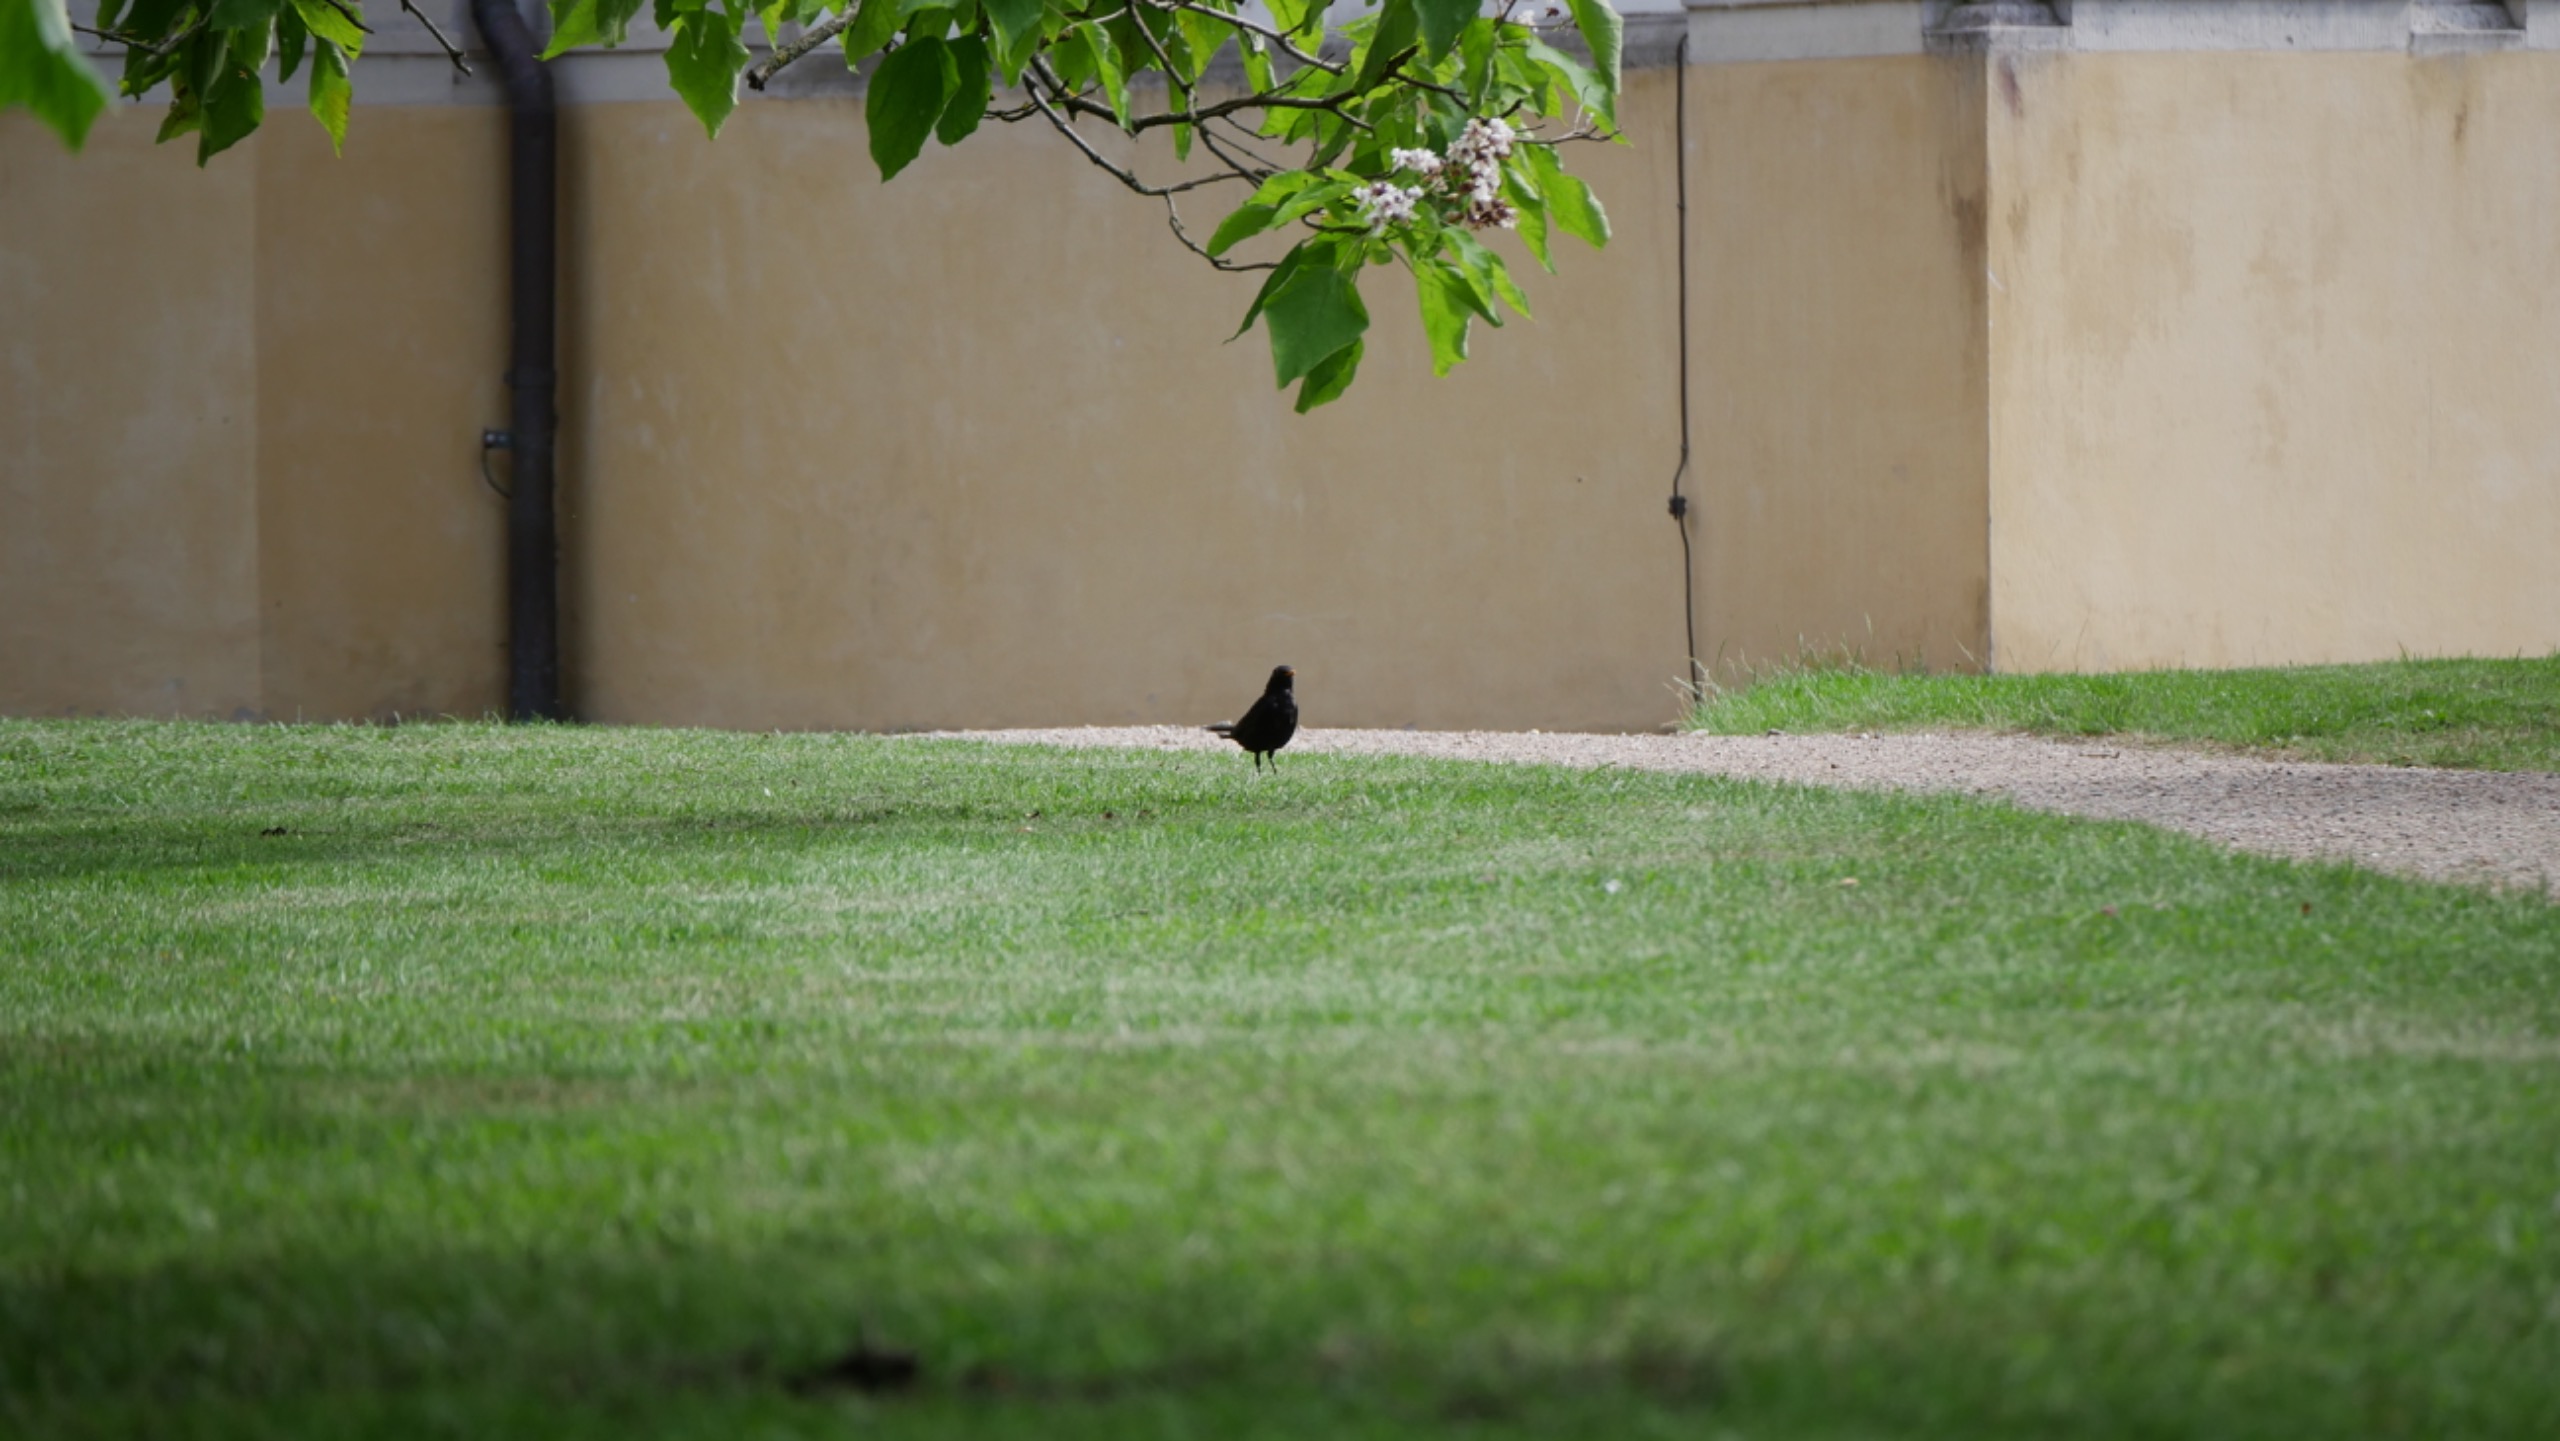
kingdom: Animalia
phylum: Chordata
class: Aves
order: Passeriformes
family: Turdidae
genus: Turdus
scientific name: Turdus merula
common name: Solsort
